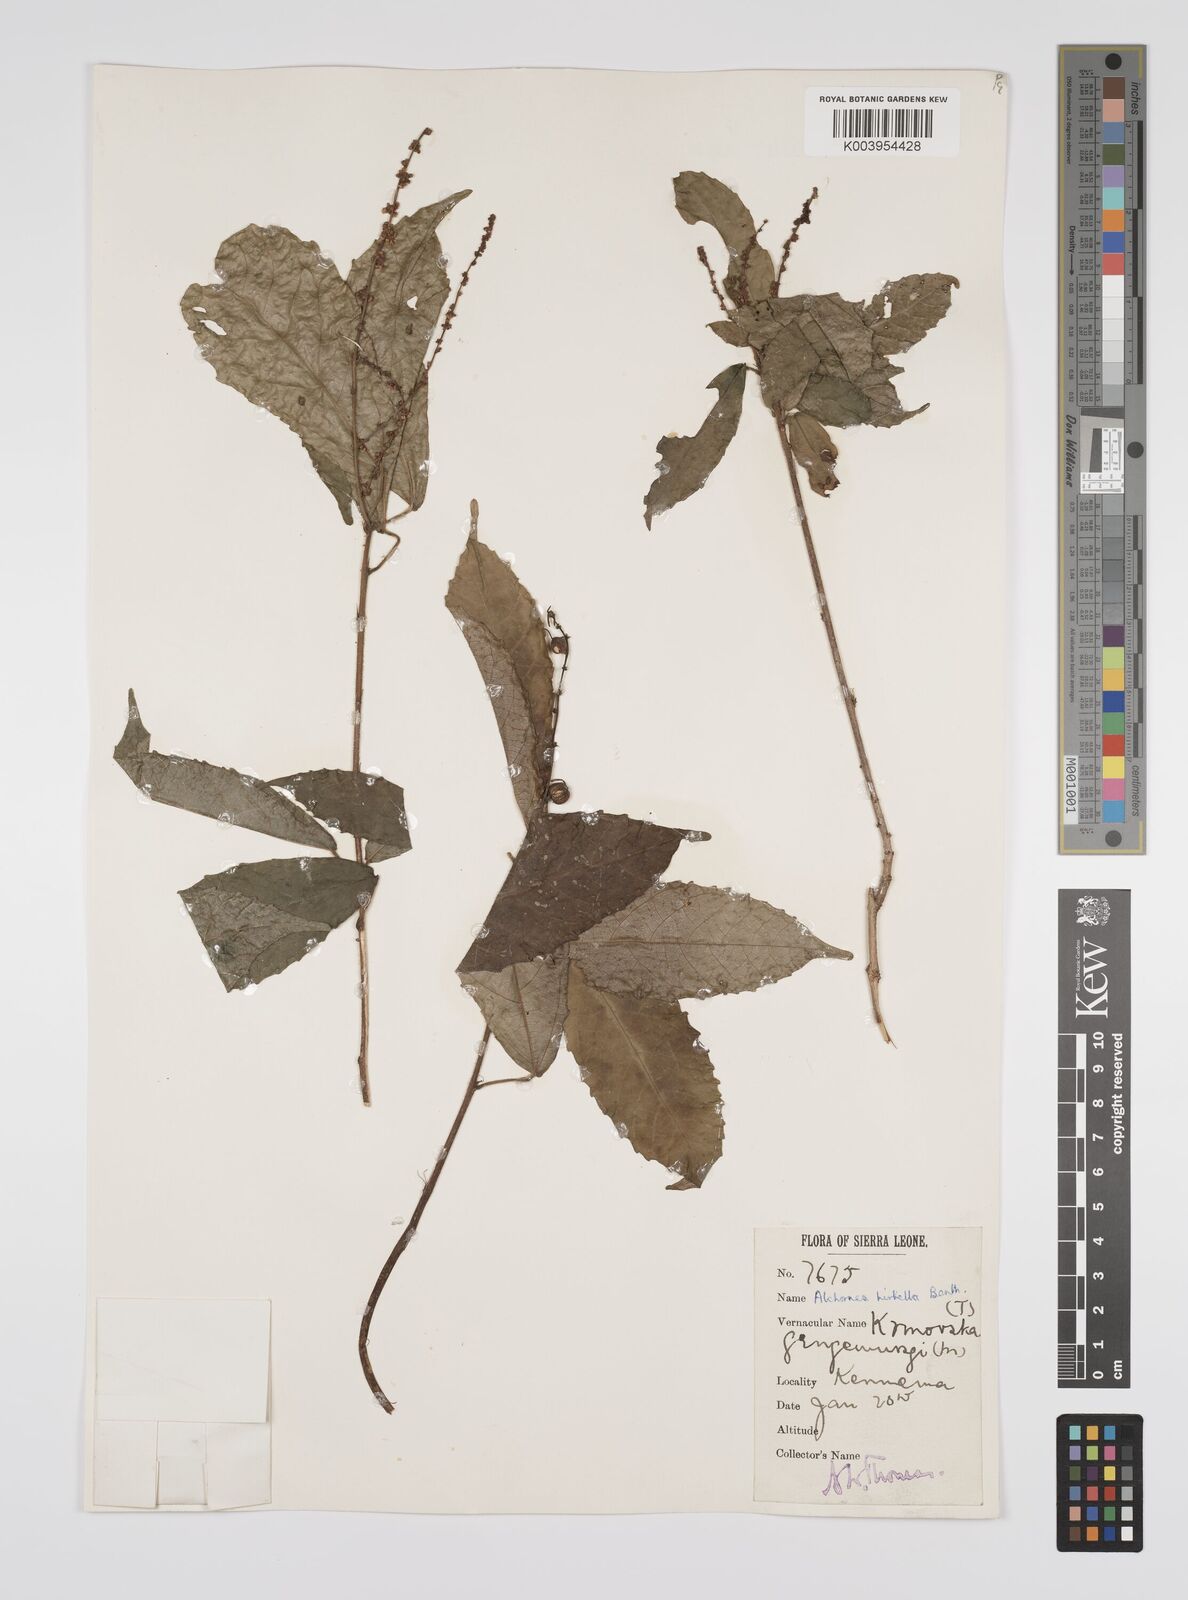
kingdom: Plantae
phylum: Tracheophyta
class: Magnoliopsida
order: Malpighiales
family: Euphorbiaceae
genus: Alchornea
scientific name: Alchornea hirtella
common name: Forest bead-string
